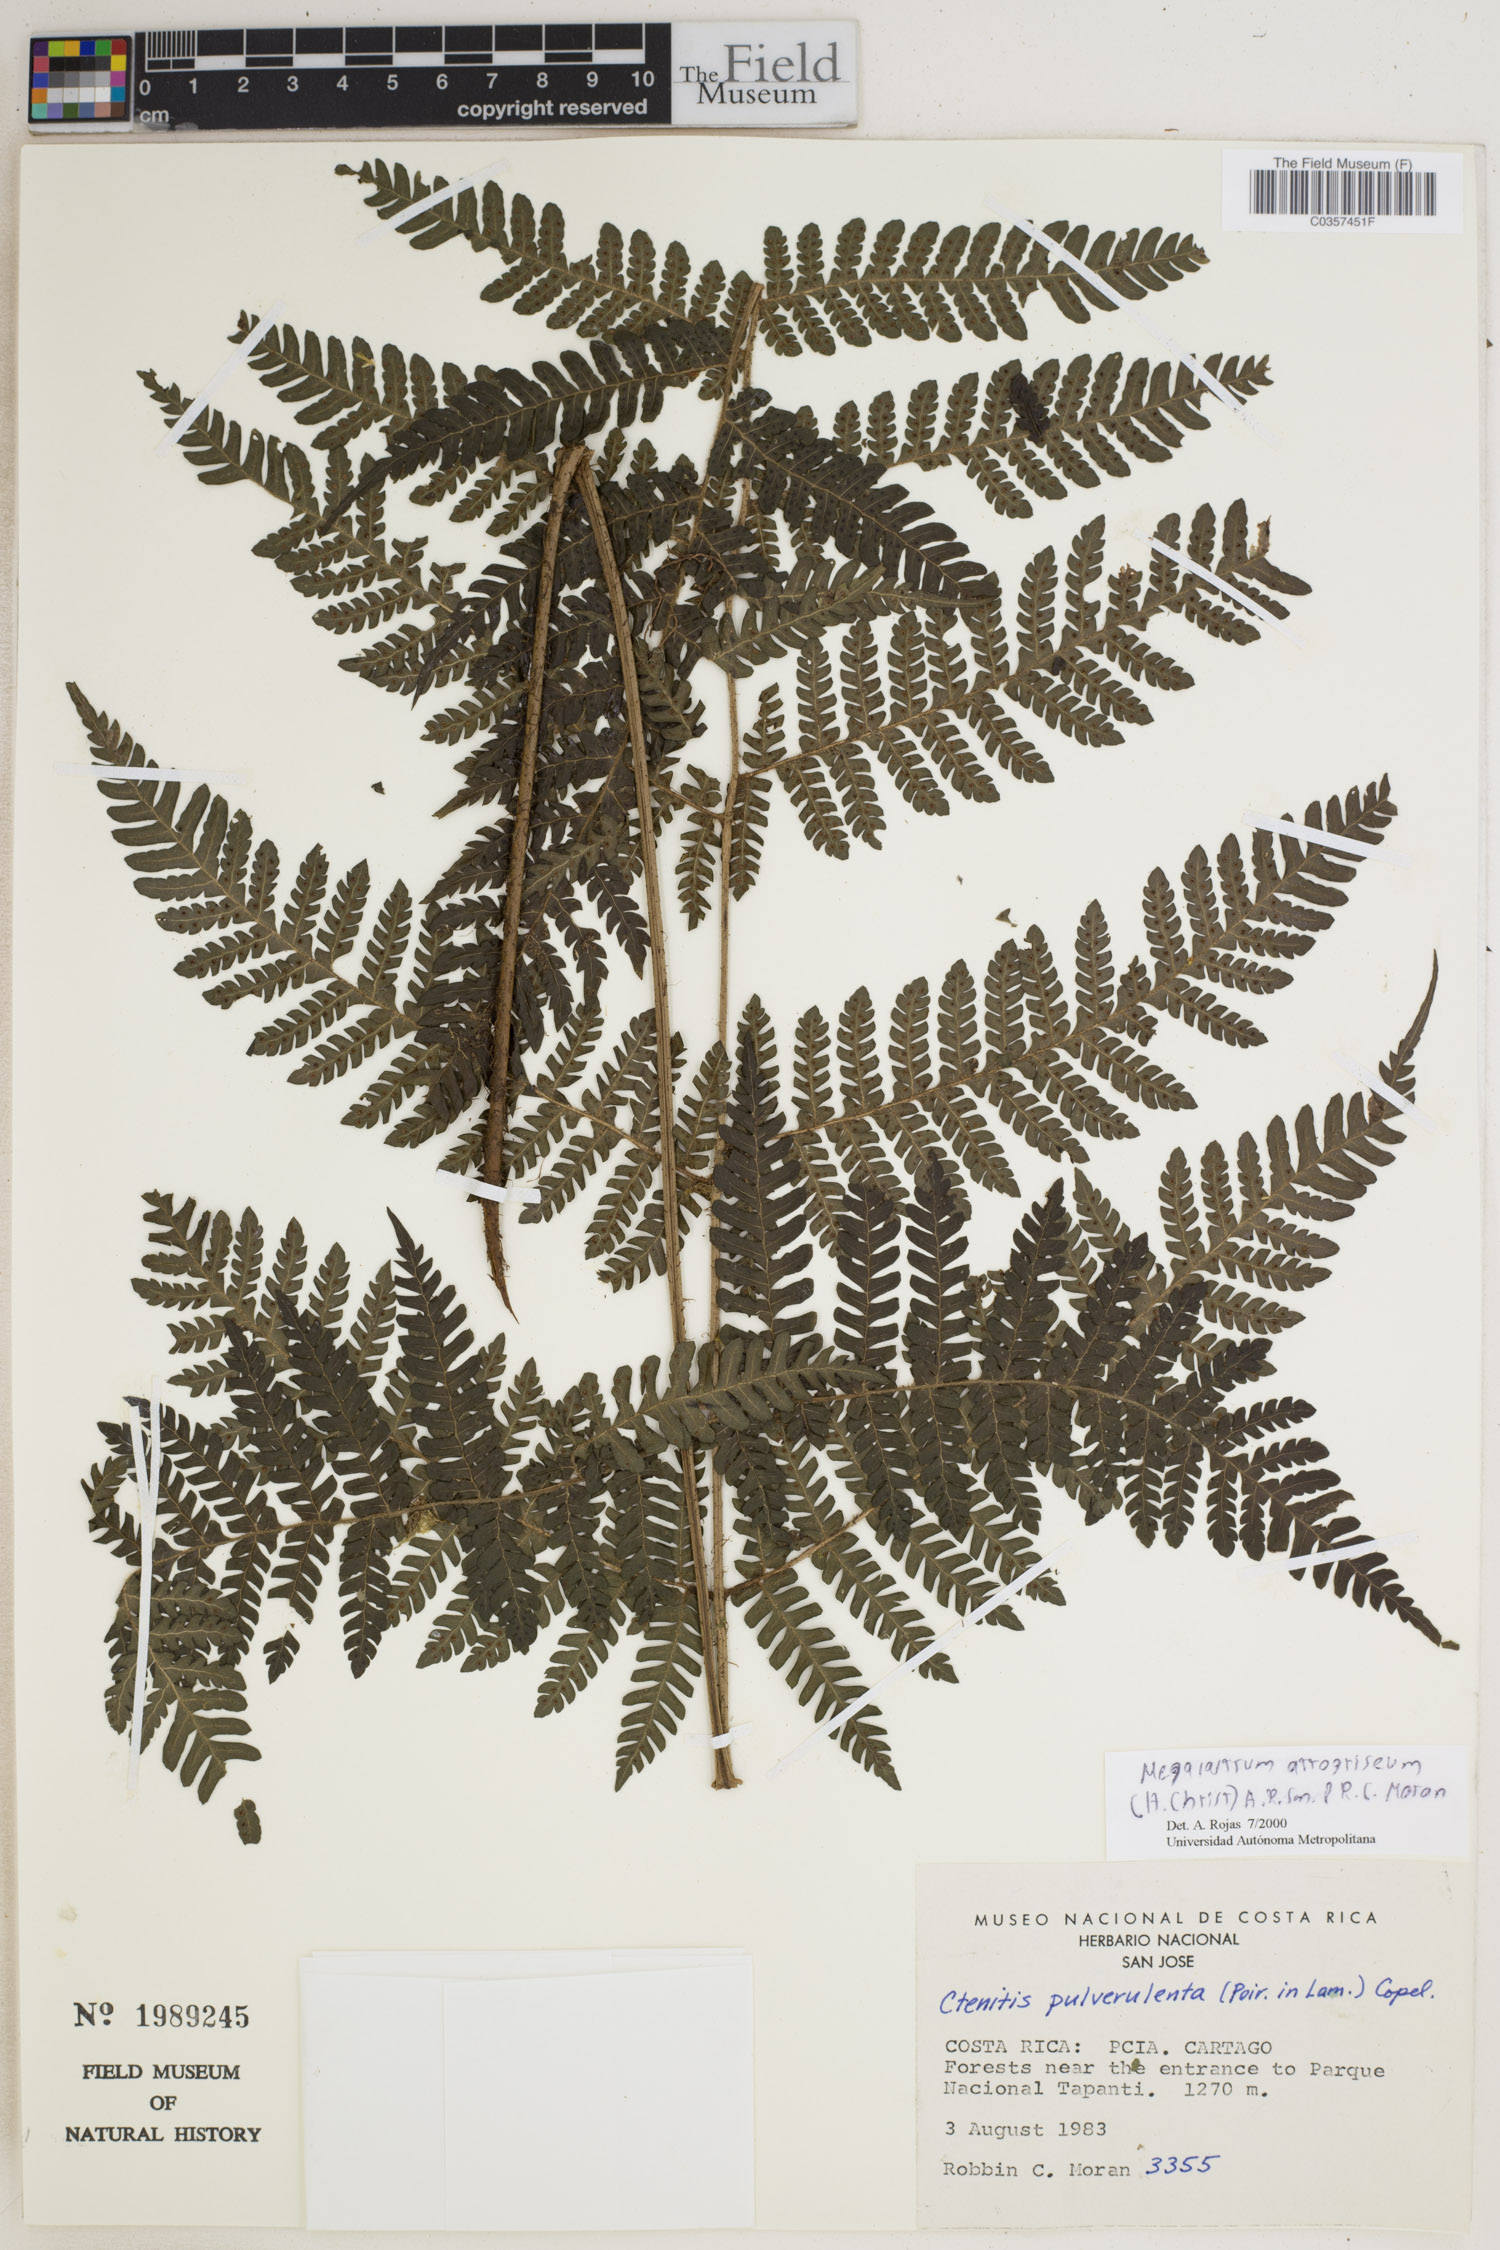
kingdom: Plantae
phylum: Tracheophyta
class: Polypodiopsida
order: Polypodiales
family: Dryopteridaceae
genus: Megalastrum
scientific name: Megalastrum atrogriseum
